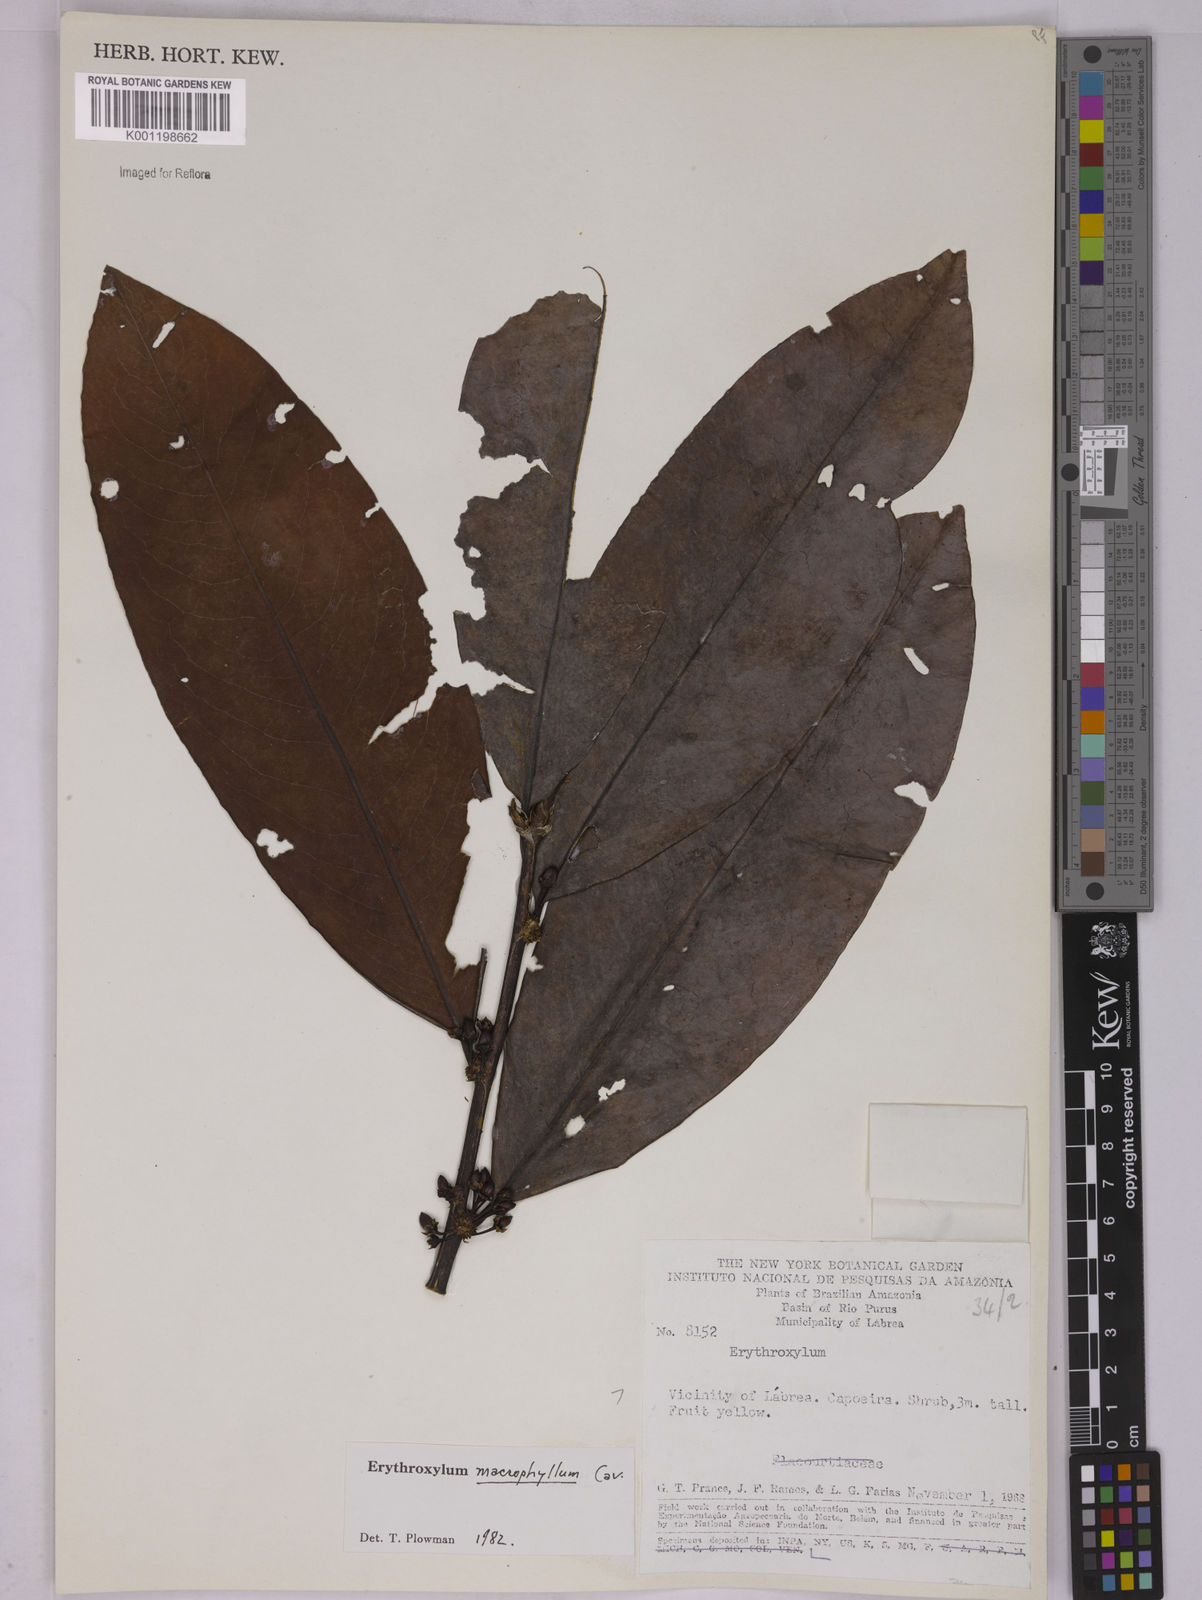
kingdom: Plantae
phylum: Tracheophyta
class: Magnoliopsida
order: Malpighiales
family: Erythroxylaceae
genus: Erythroxylum
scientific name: Erythroxylum macrophyllum
